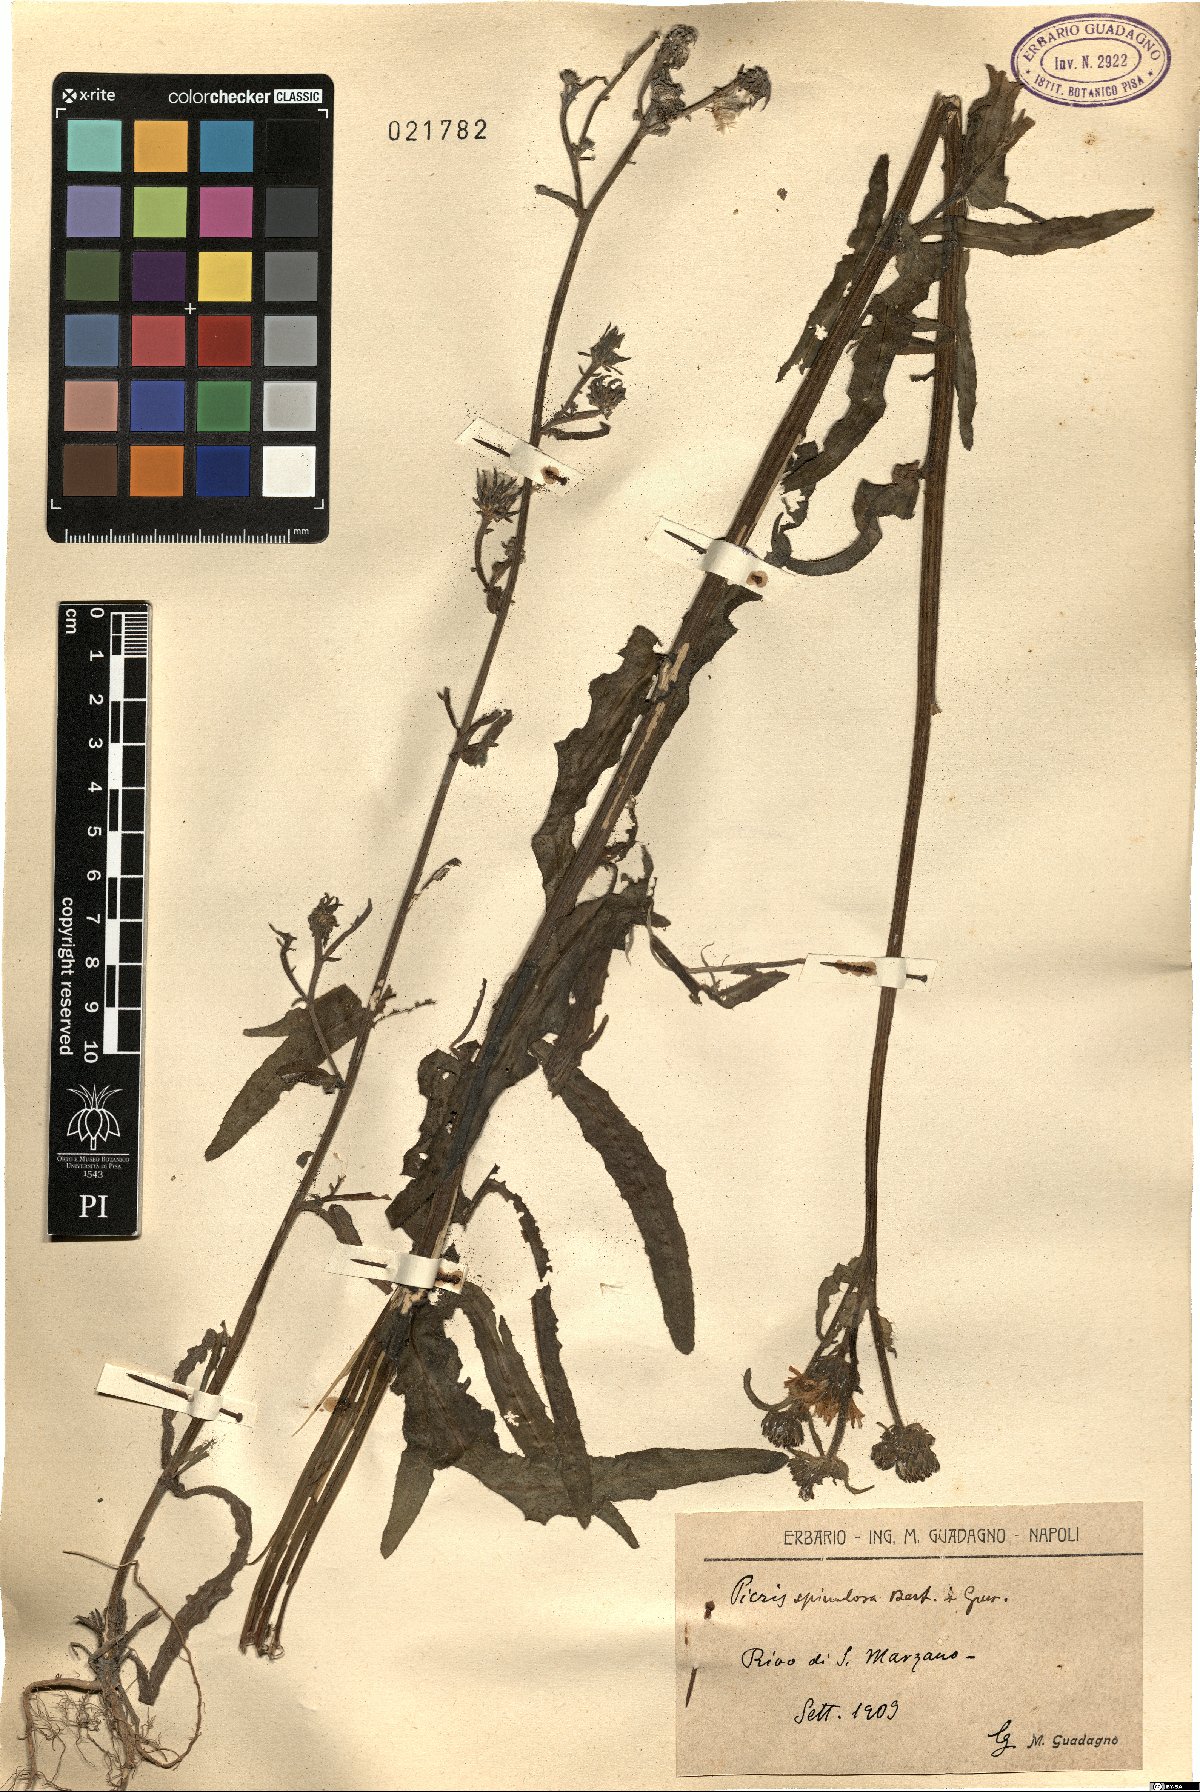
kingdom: Plantae
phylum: Tracheophyta
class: Magnoliopsida
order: Asterales
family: Asteraceae
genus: Picris
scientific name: Picris hieracioides
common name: Hawkweed oxtongue
